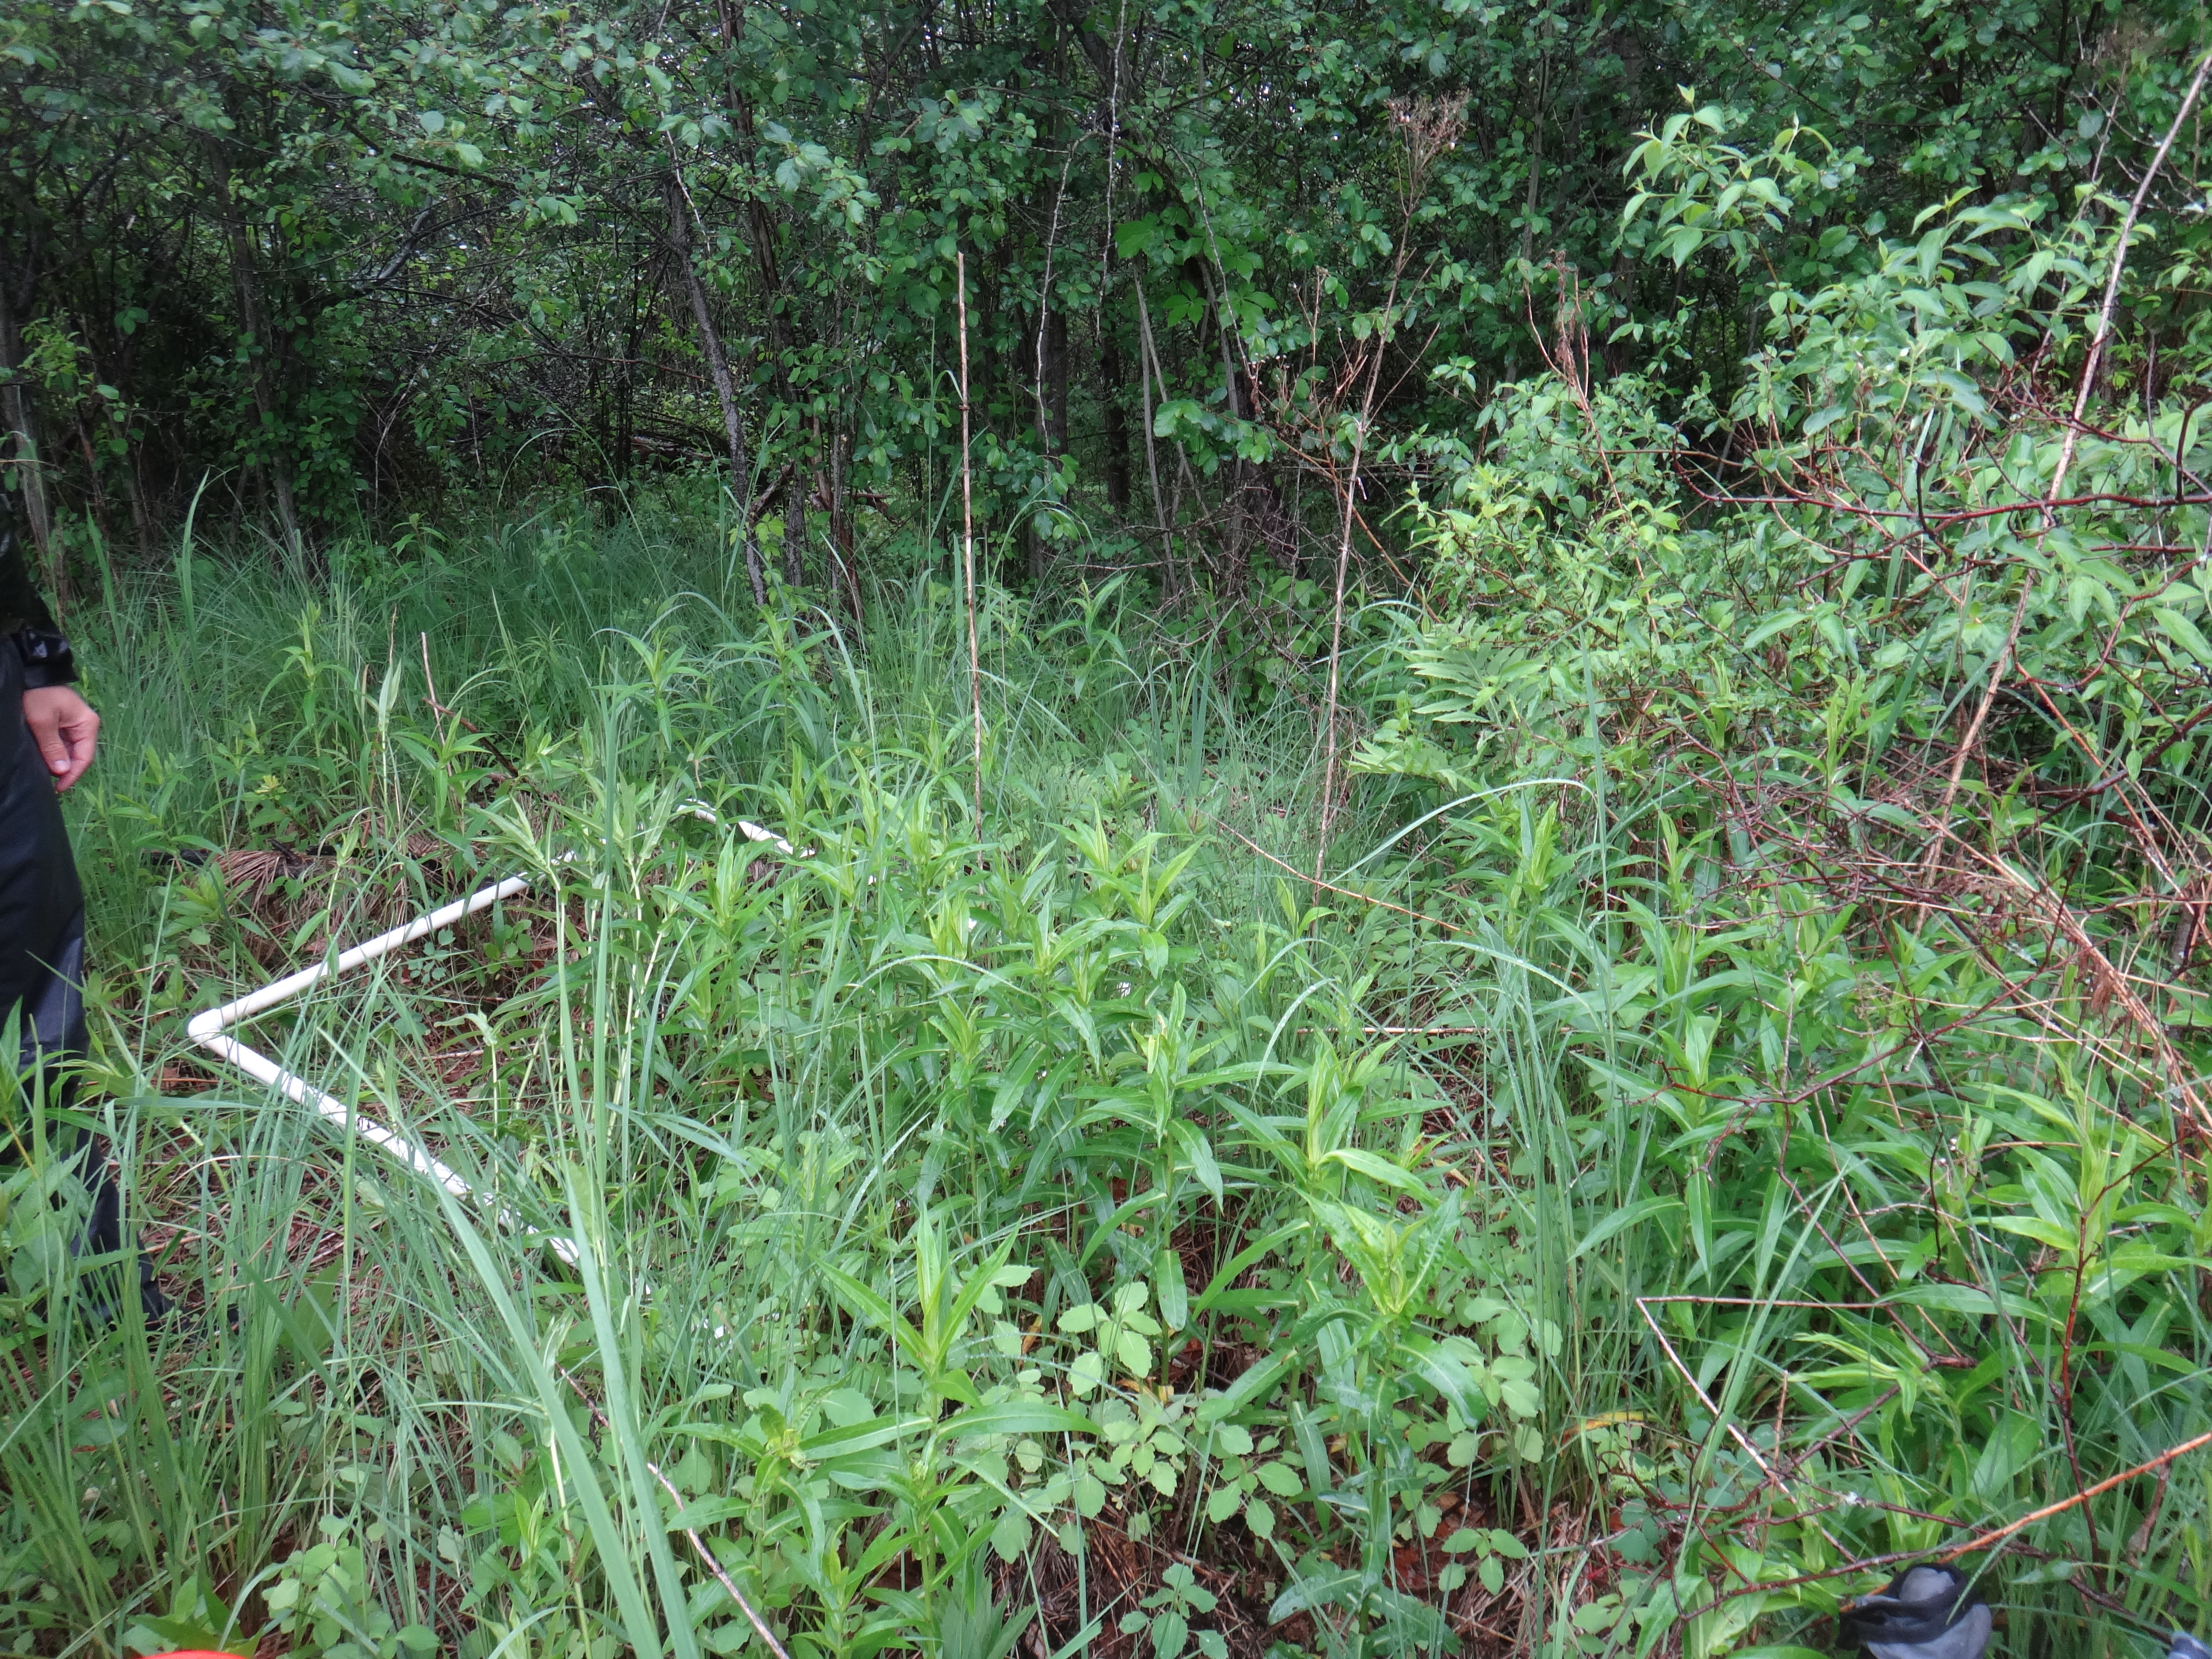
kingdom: Plantae
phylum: Tracheophyta
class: Liliopsida
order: Poales
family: Cyperaceae
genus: Carex
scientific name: Carex stricta
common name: Hummock sedge
